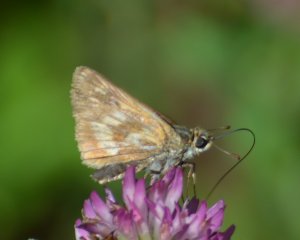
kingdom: Animalia
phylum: Arthropoda
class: Insecta
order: Lepidoptera
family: Hesperiidae
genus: Polites
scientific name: Polites
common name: Long Dash Skipper
